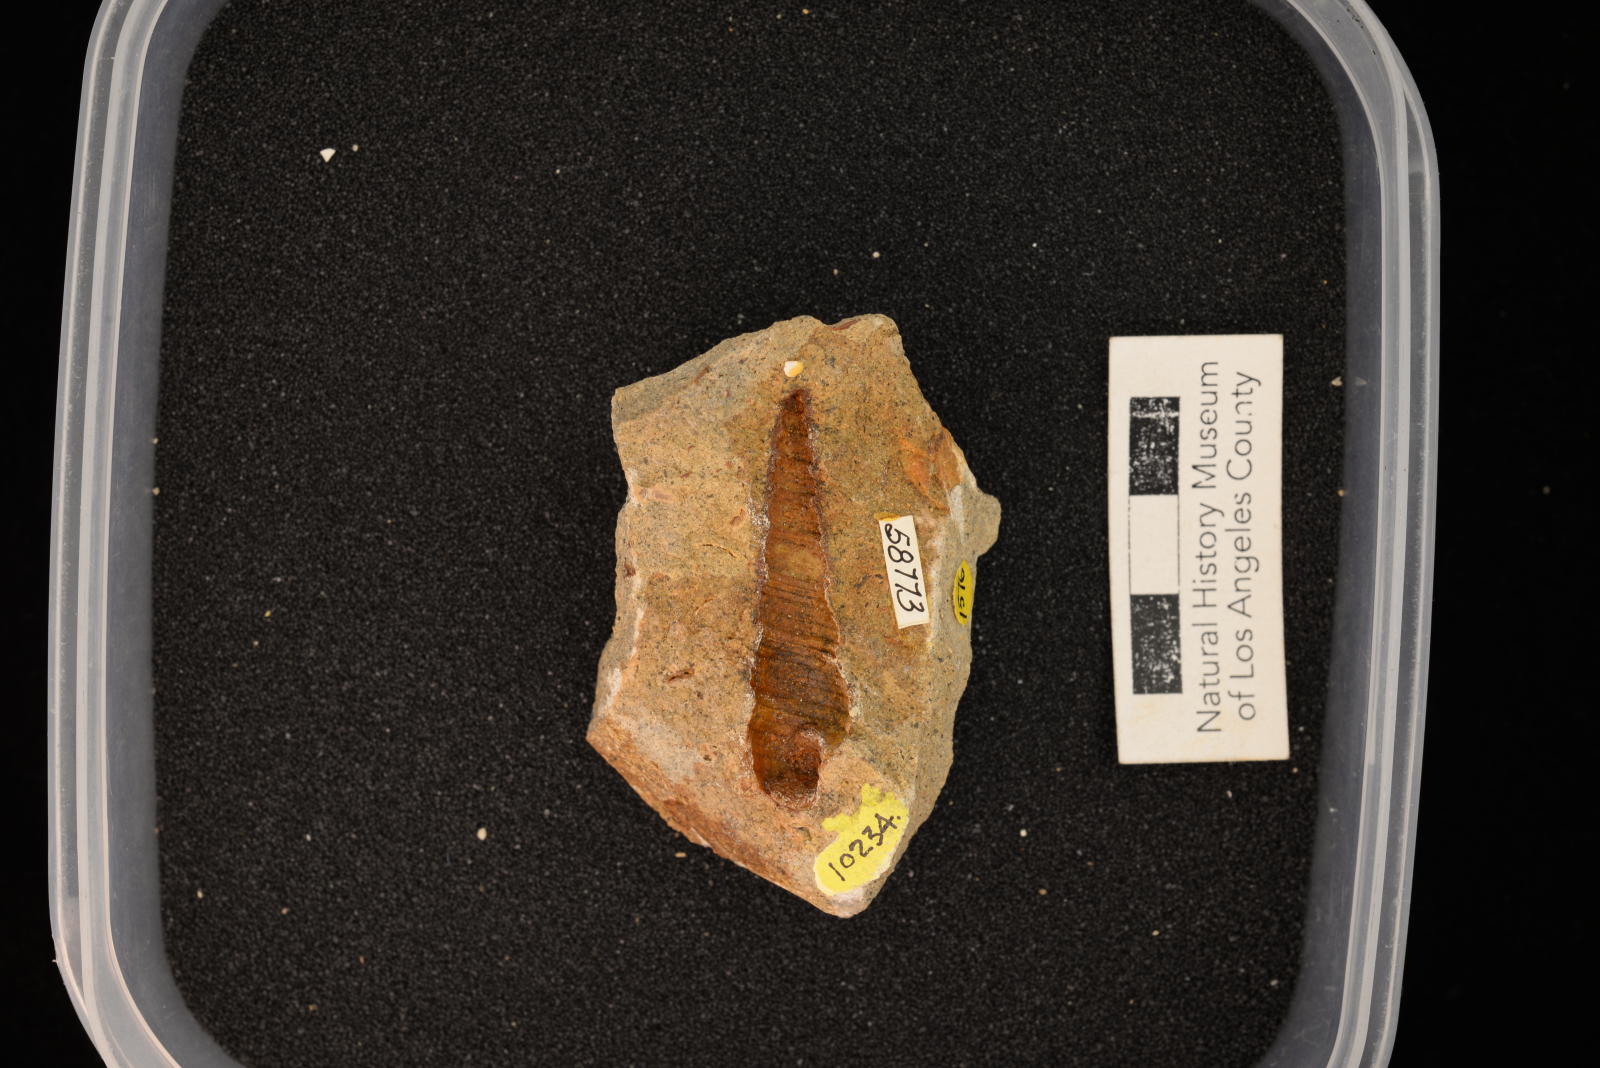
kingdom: Animalia
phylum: Mollusca
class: Gastropoda
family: Turritellidae
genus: Turritella
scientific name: Turritella
